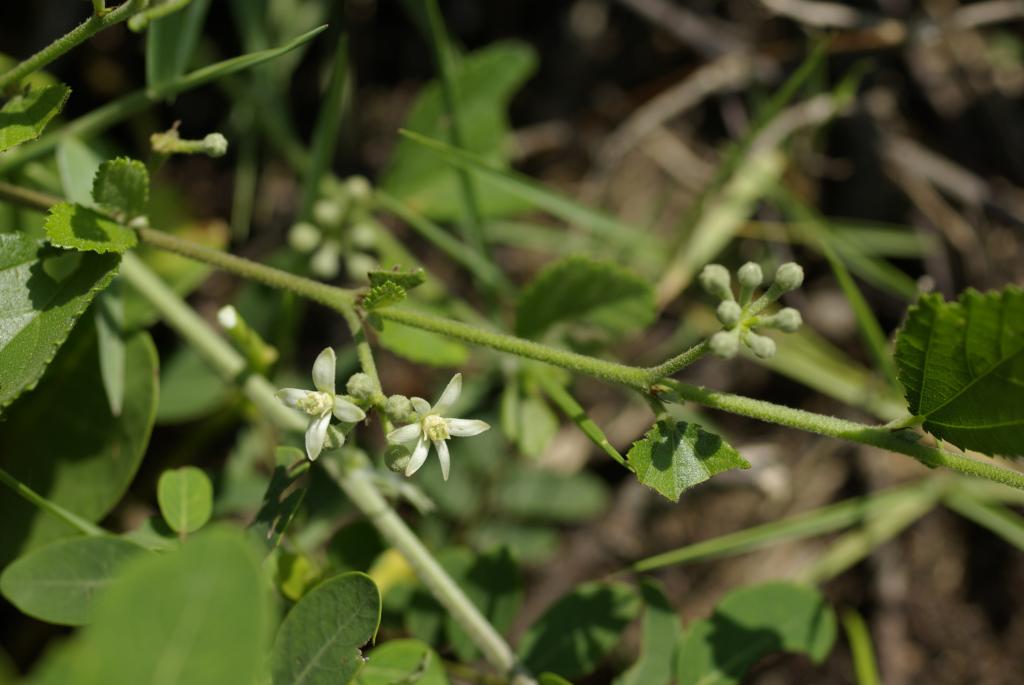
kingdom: Plantae
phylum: Tracheophyta
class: Magnoliopsida
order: Malvales
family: Malvaceae
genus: Grewia
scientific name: Grewia piscatorum
